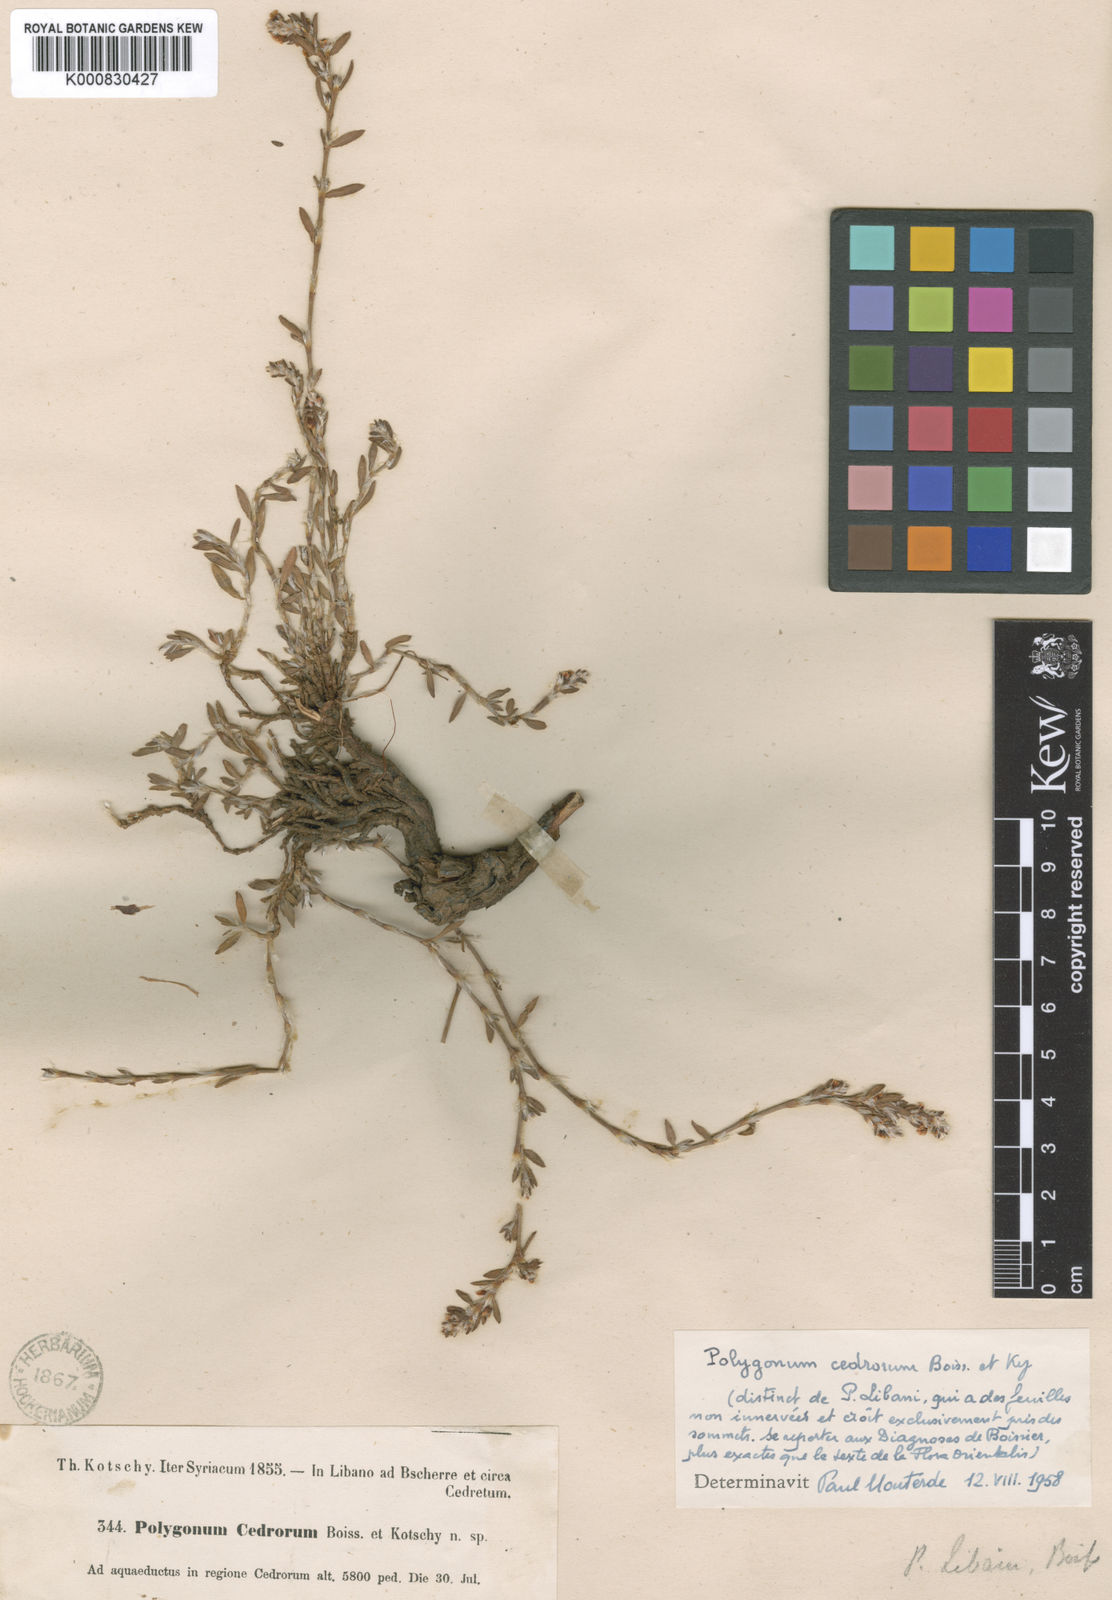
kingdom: Plantae
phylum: Tracheophyta
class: Magnoliopsida
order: Caryophyllales
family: Polygonaceae
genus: Polygonum
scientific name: Polygonum libani
